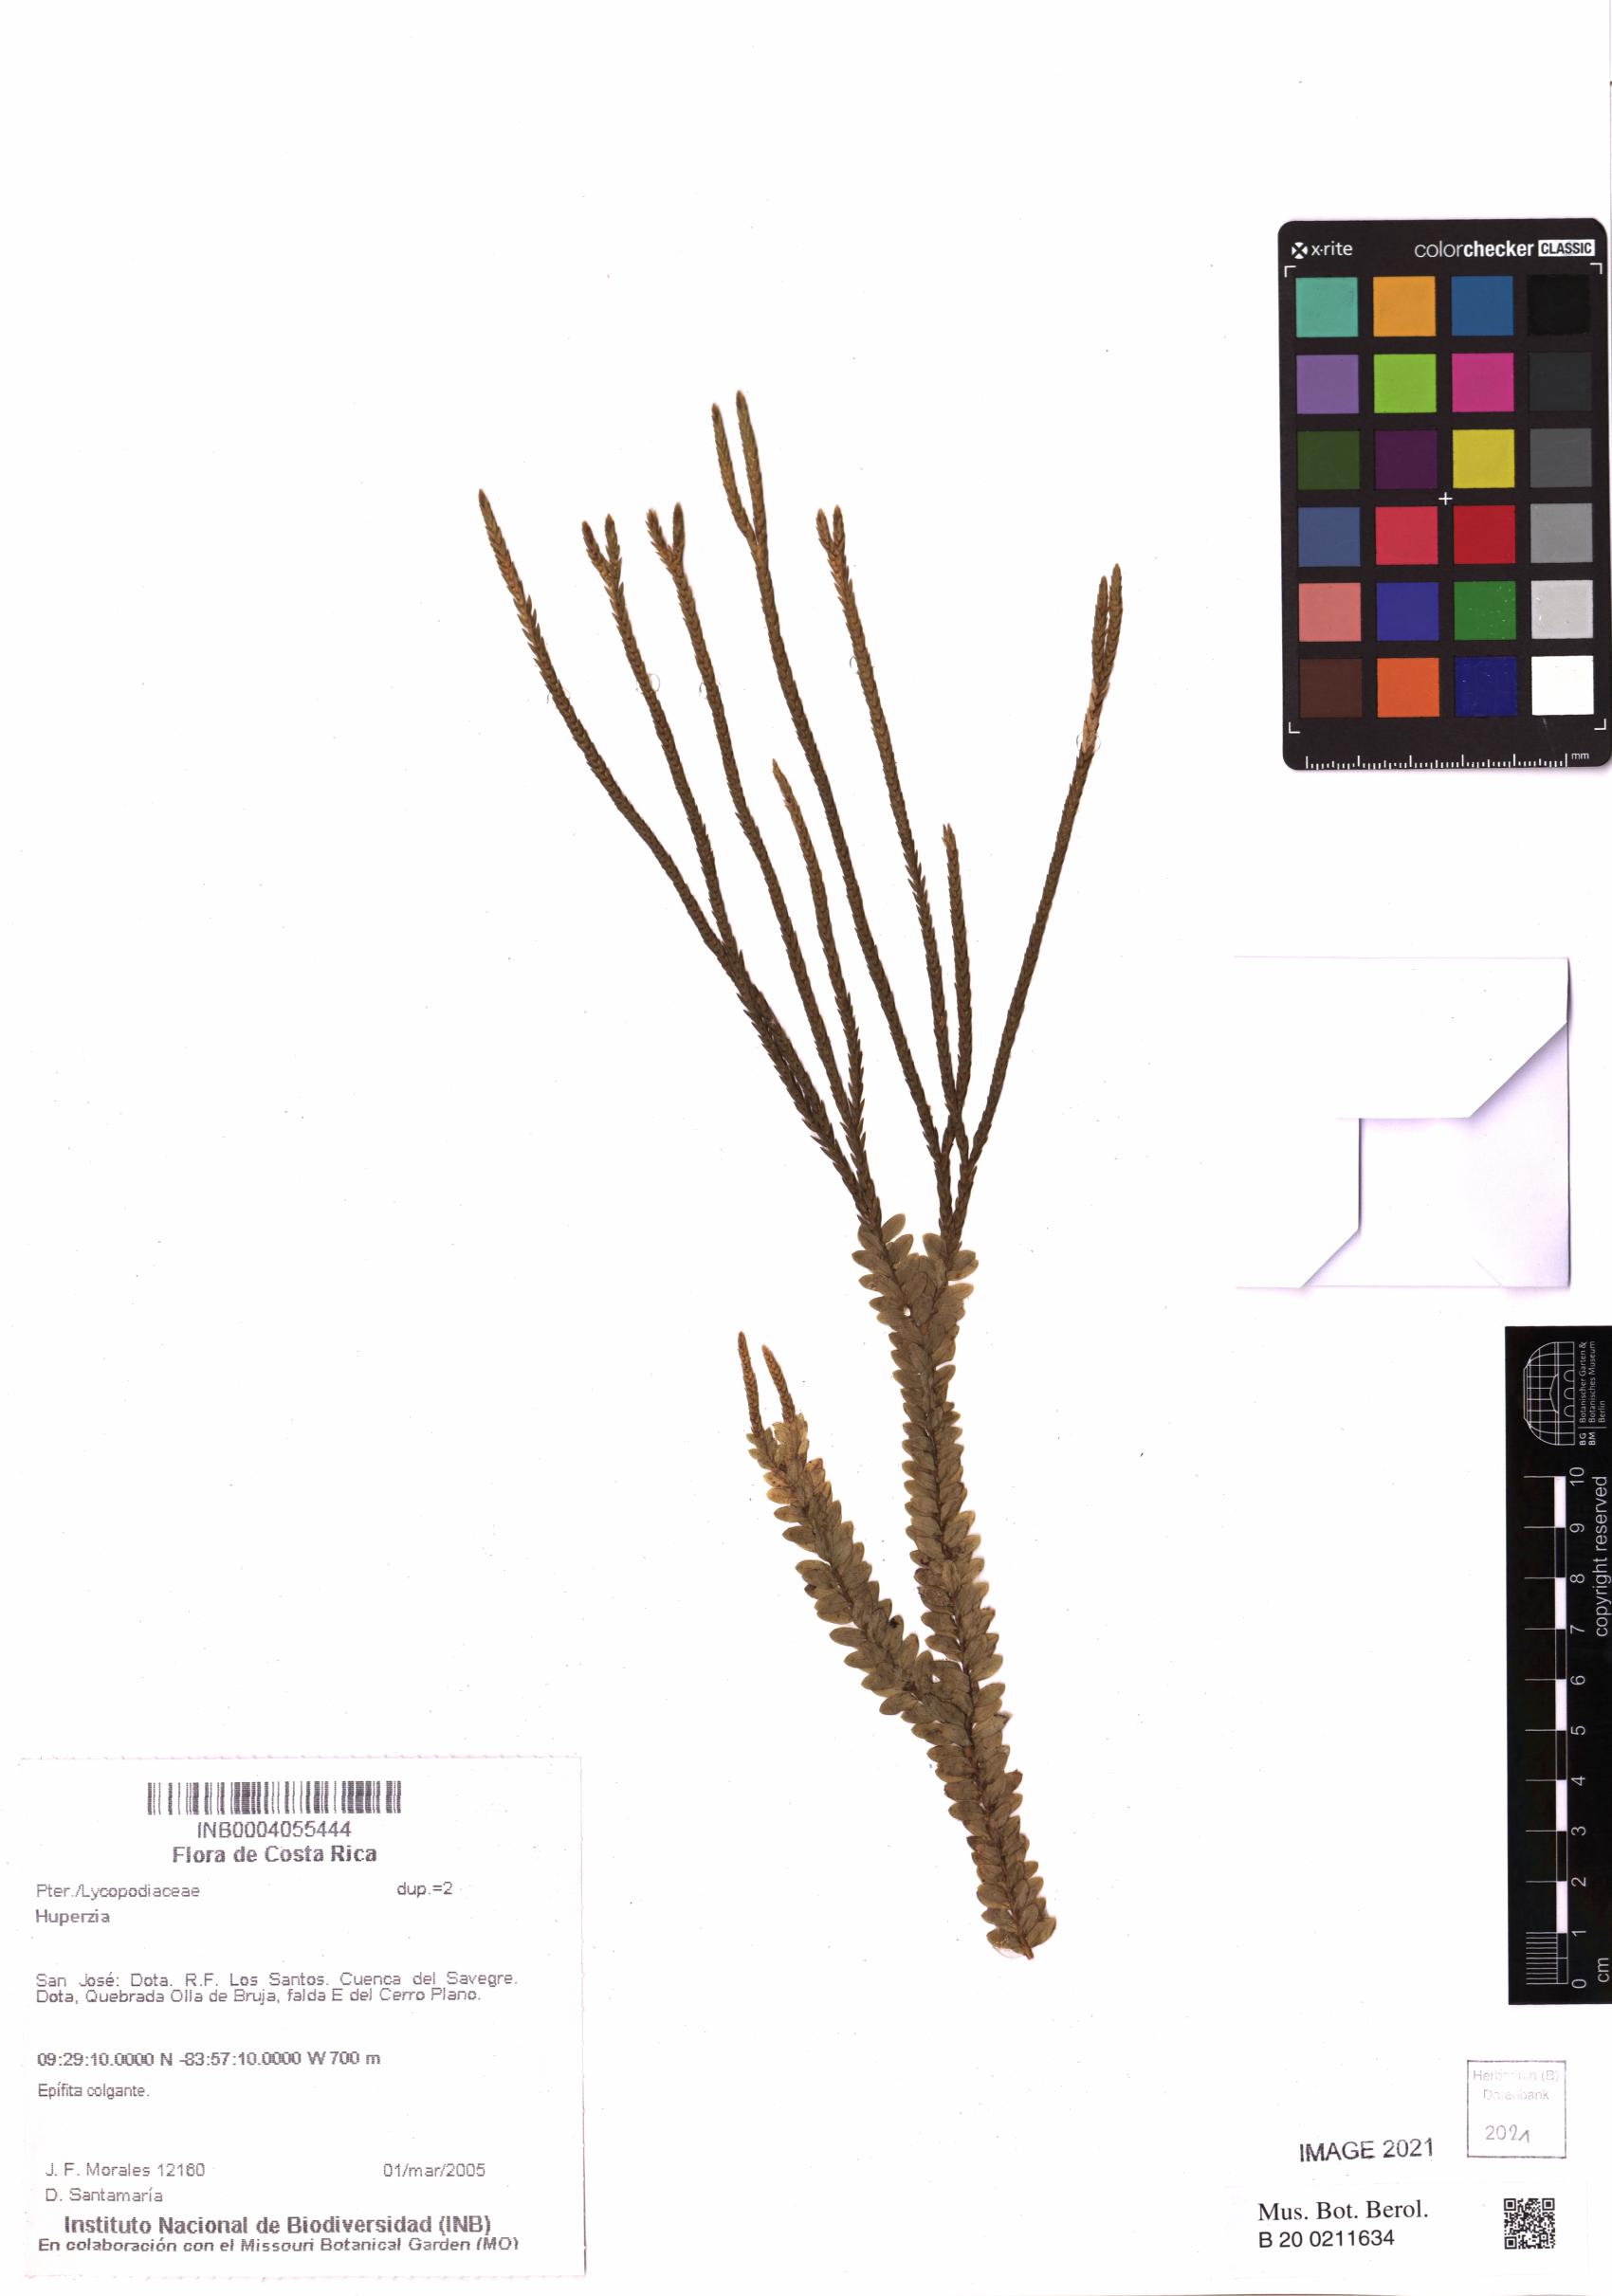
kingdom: Plantae
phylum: Tracheophyta
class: Lycopodiopsida
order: Lycopodiales
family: Lycopodiaceae
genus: Phlegmariurus
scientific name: Phlegmariurus aqualupianus
